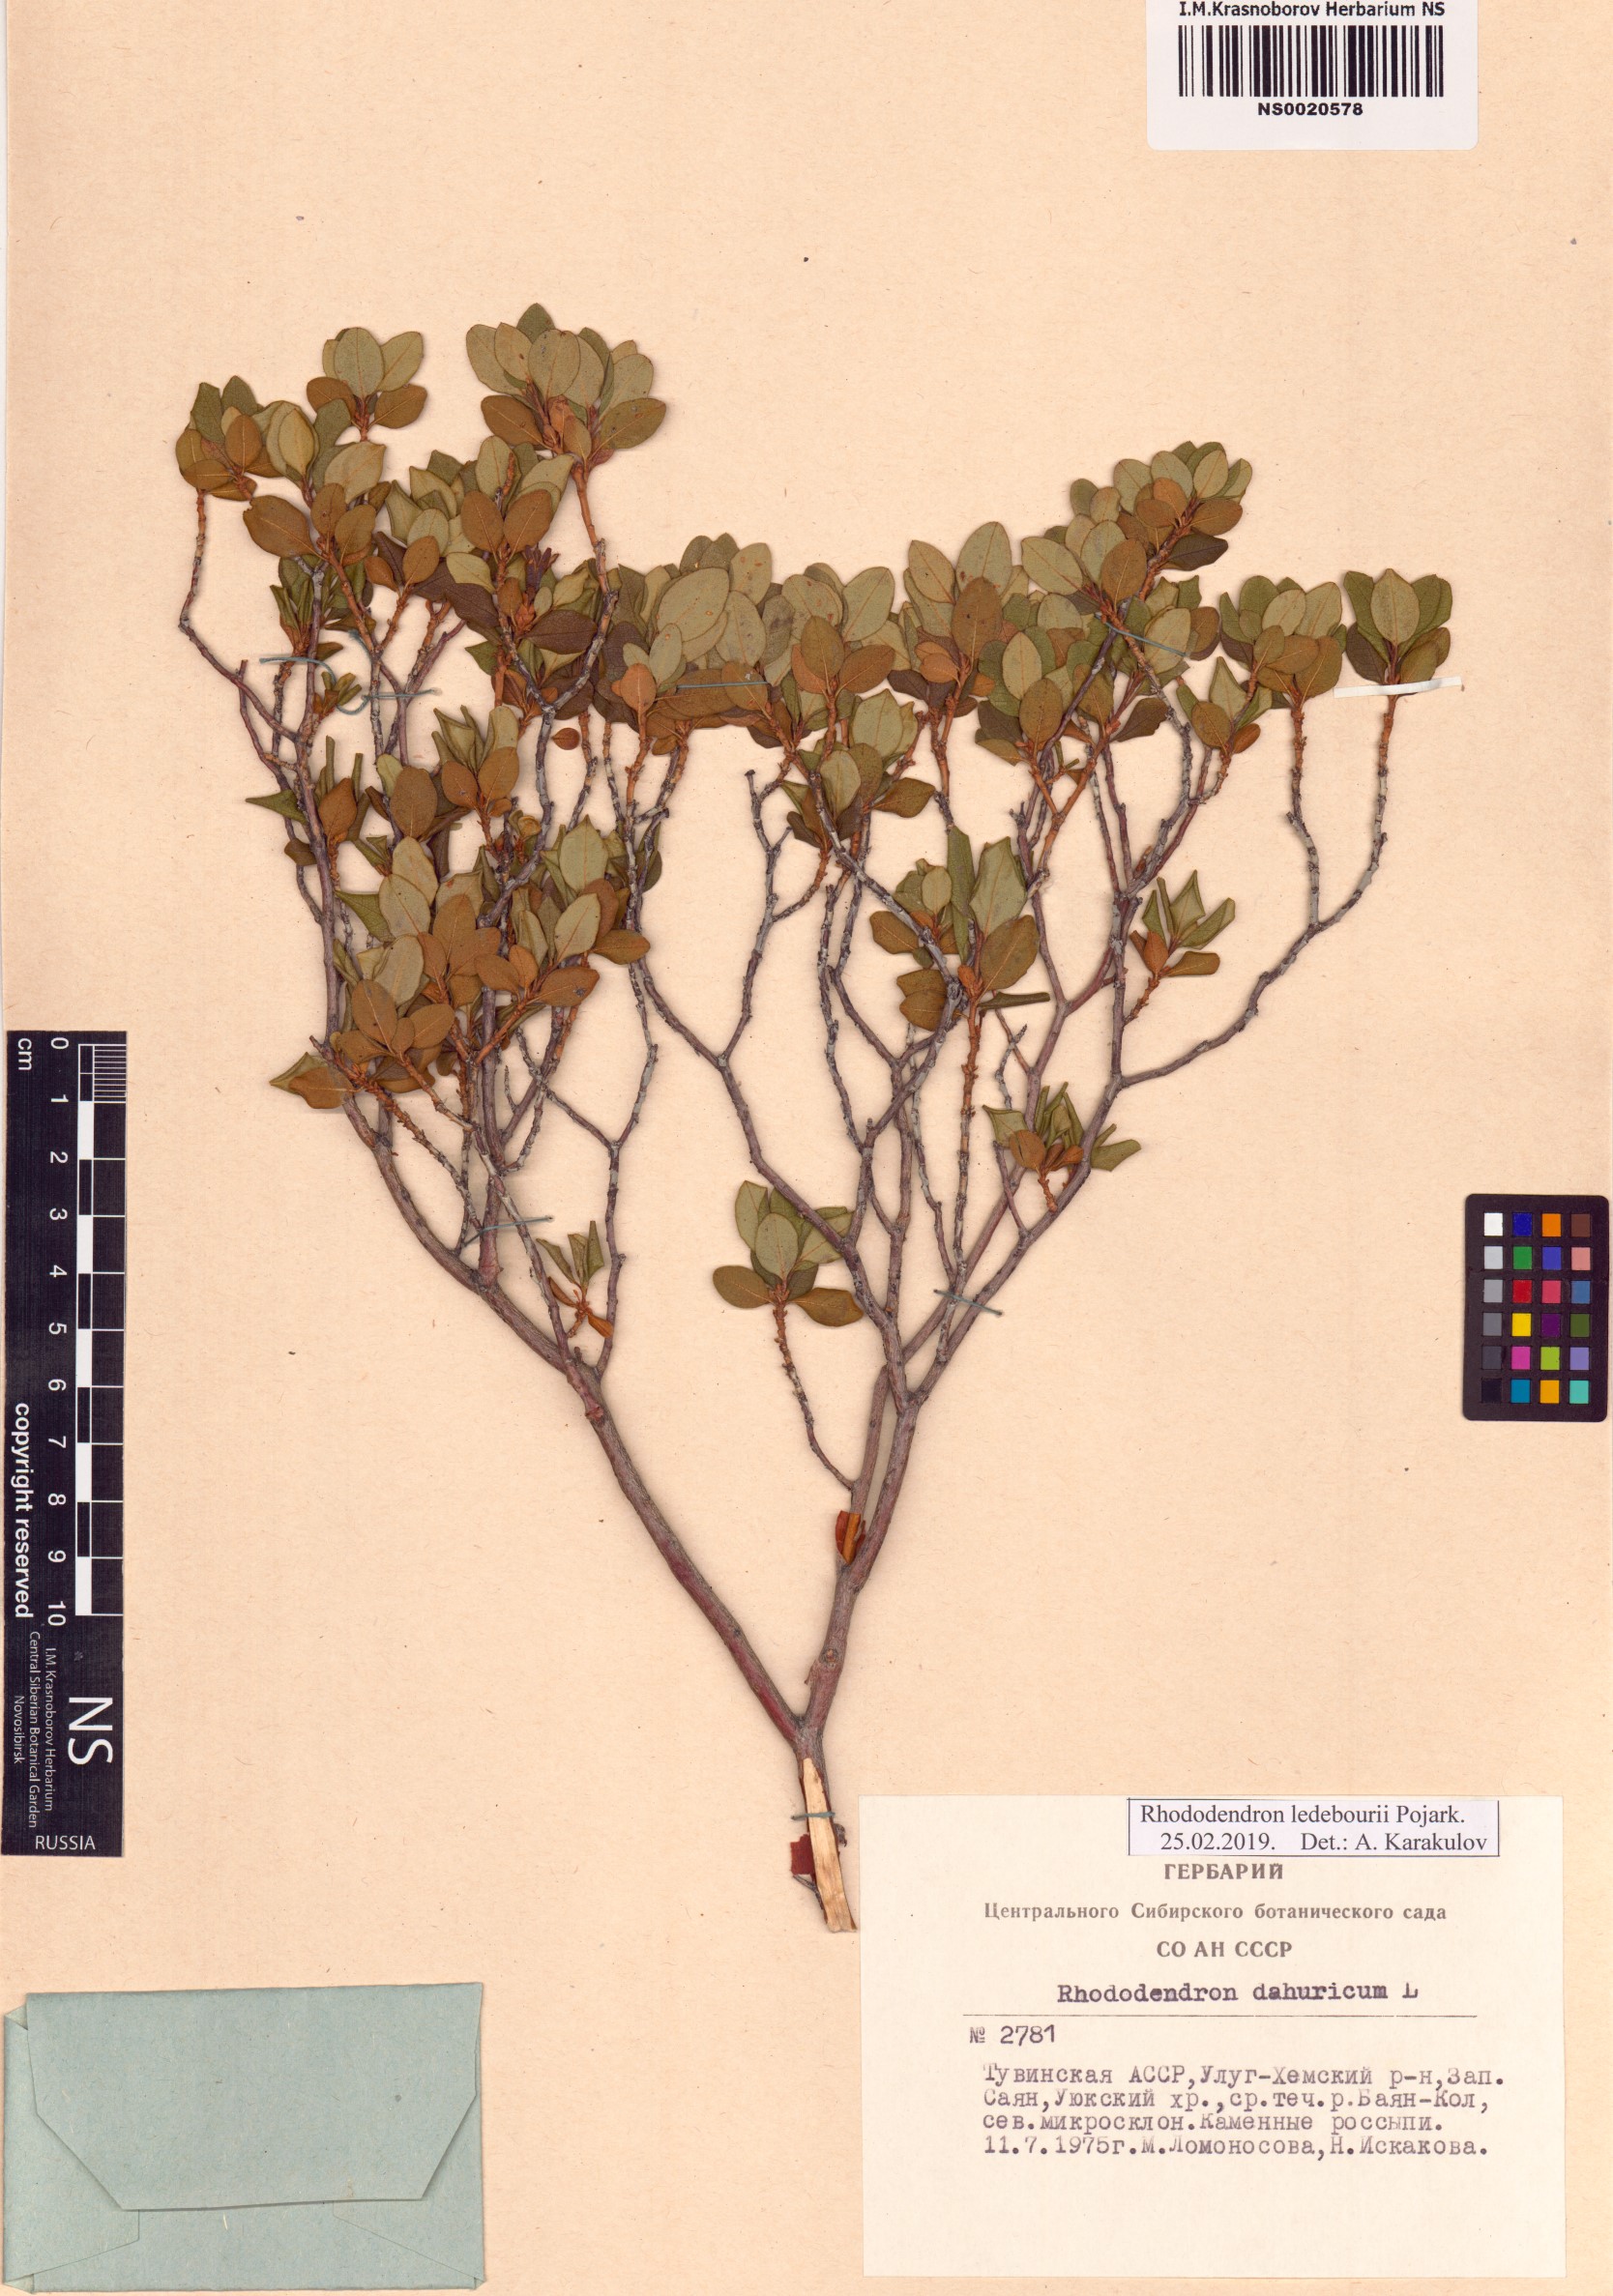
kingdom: Plantae
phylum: Tracheophyta
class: Magnoliopsida
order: Ericales
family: Ericaceae
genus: Rhododendron
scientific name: Rhododendron dauricum
